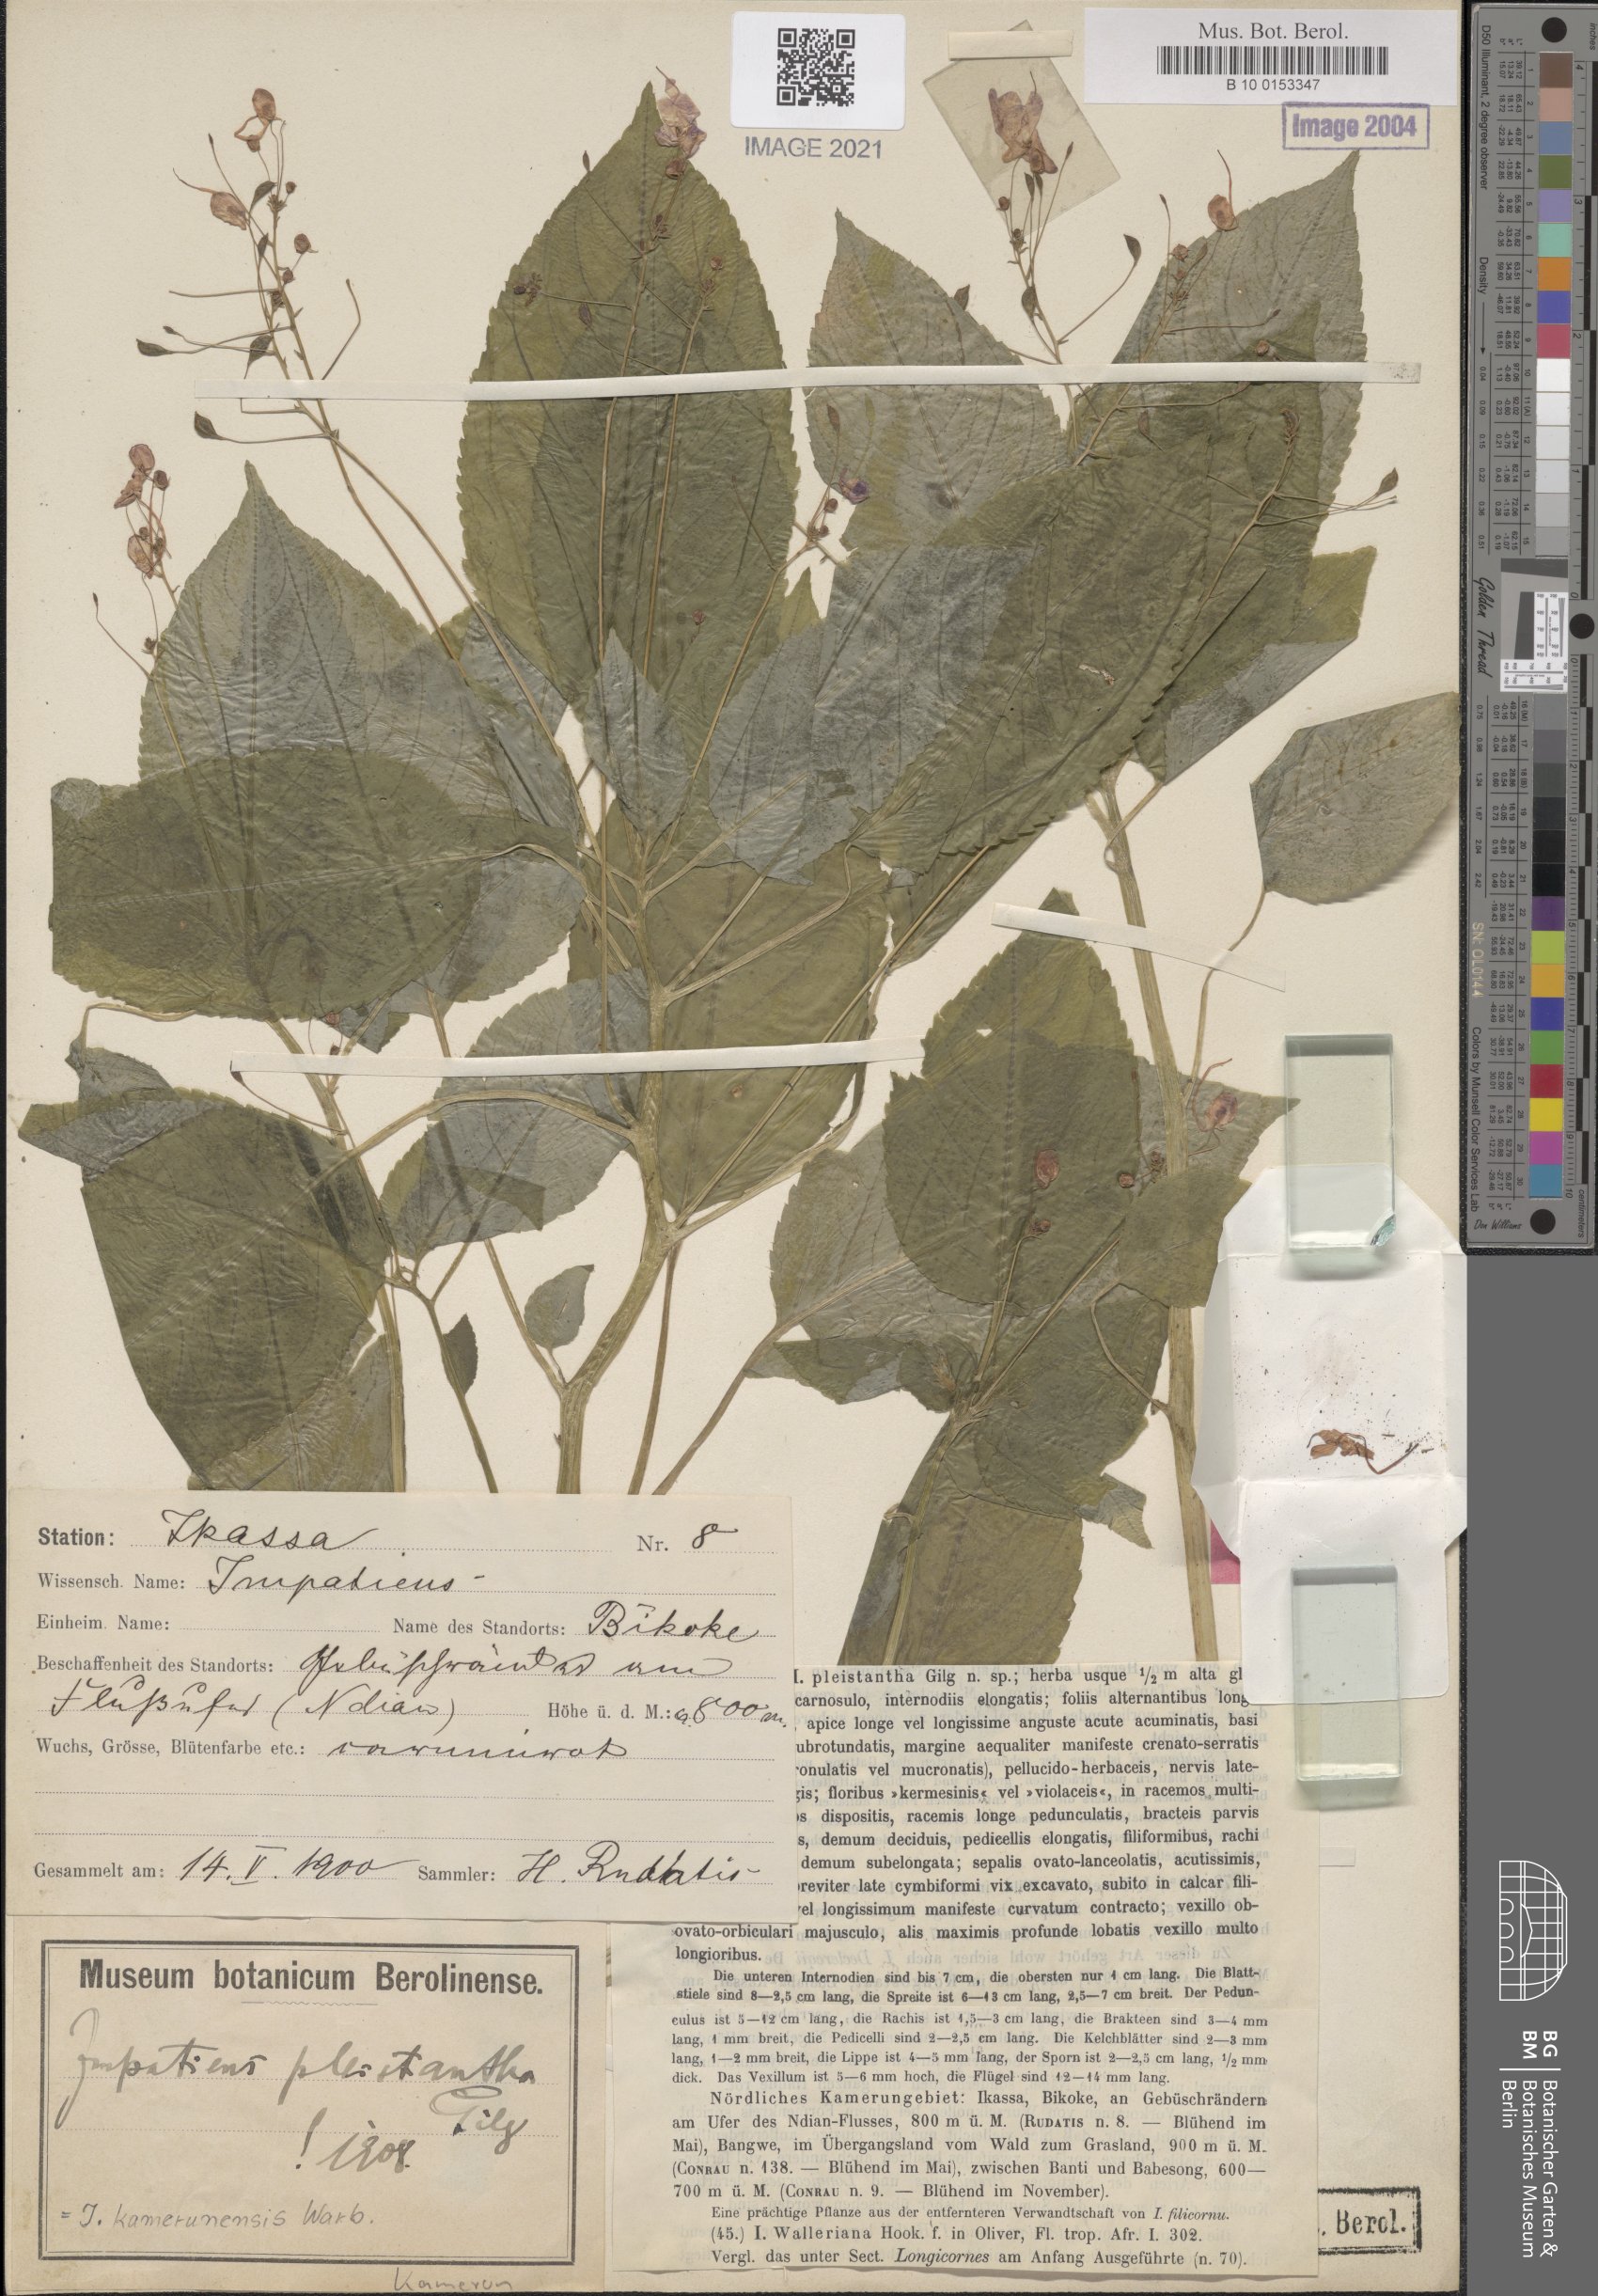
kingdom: Plantae
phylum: Tracheophyta
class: Magnoliopsida
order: Ericales
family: Balsaminaceae
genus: Impatiens
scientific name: Impatiens kamerunensis
